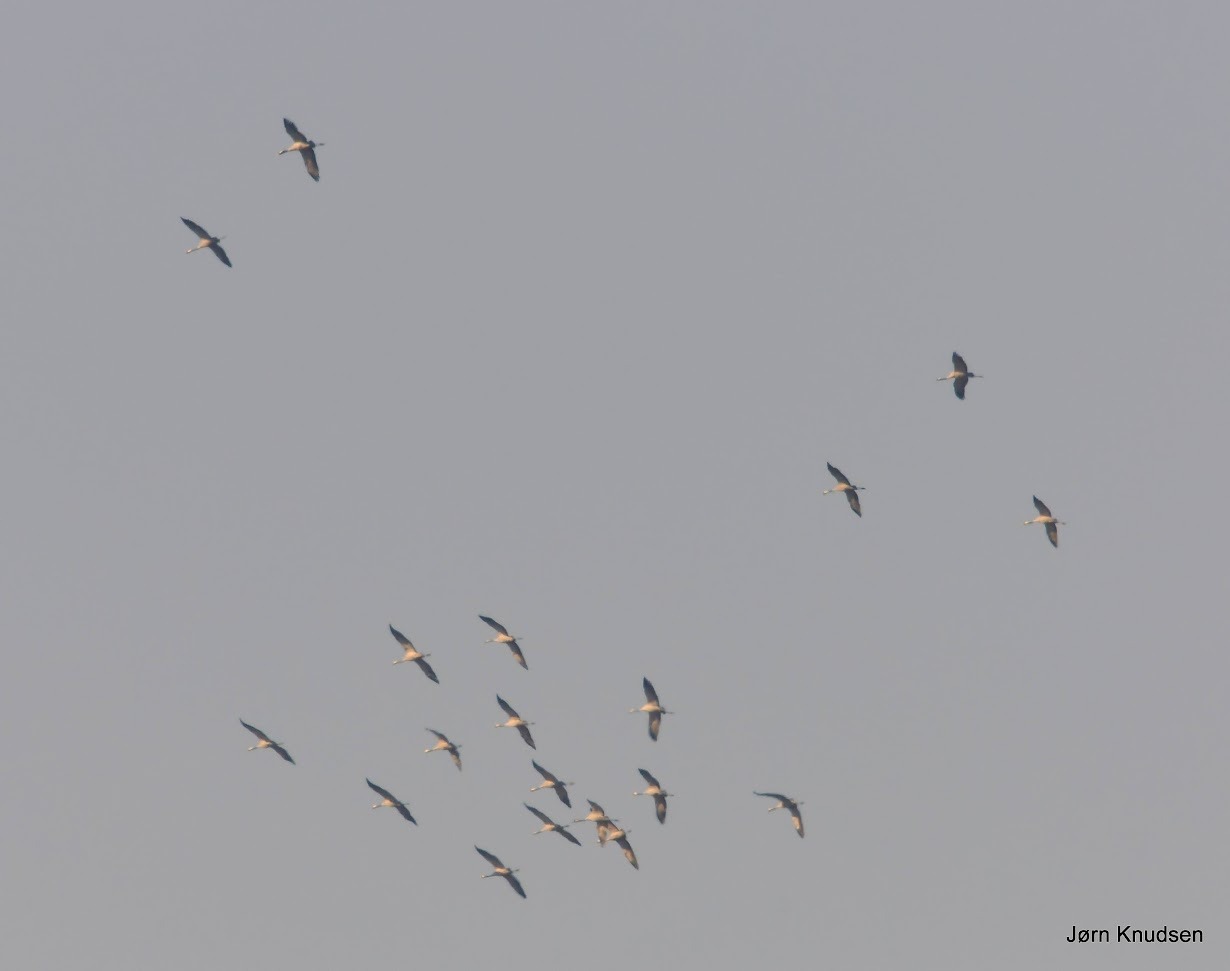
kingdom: Animalia
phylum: Chordata
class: Aves
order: Gruiformes
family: Gruidae
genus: Grus
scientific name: Grus grus
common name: Trane
